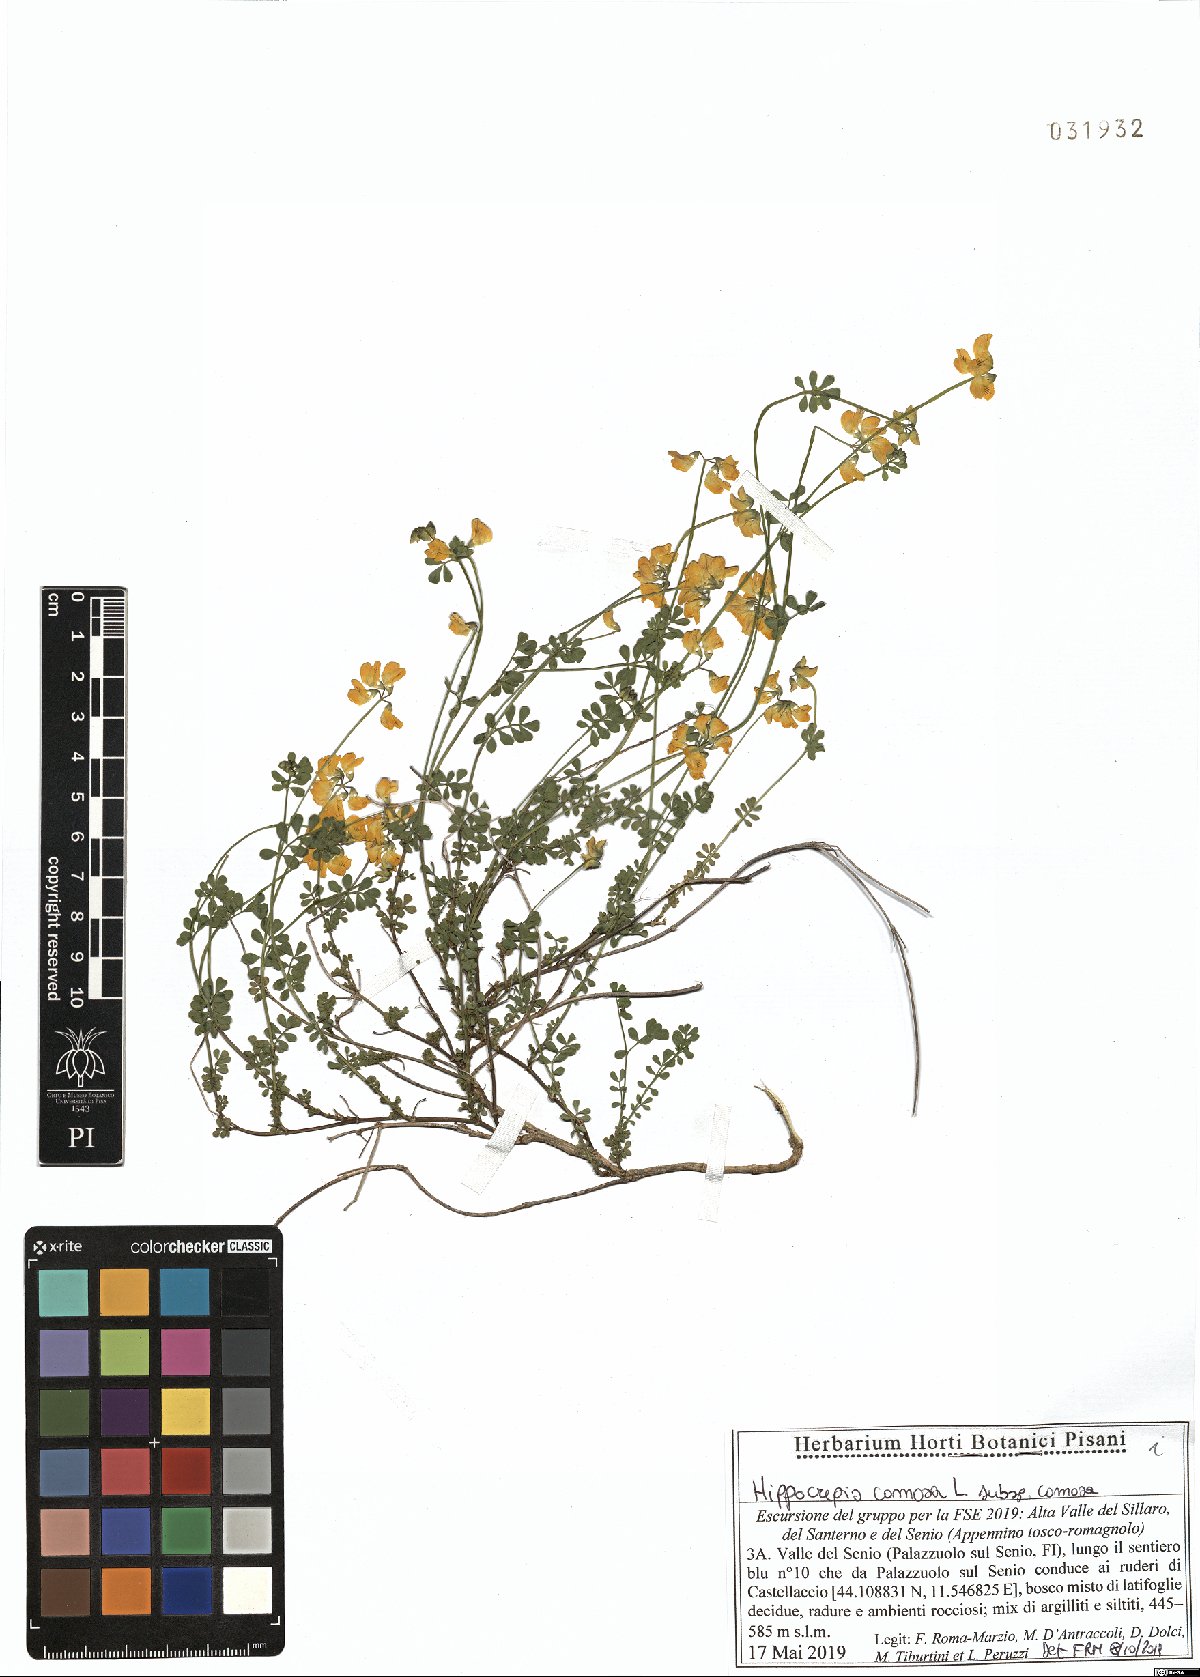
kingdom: Plantae
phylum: Tracheophyta
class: Magnoliopsida
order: Fabales
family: Fabaceae
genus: Hippocrepis
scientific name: Hippocrepis comosa
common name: Horseshoe vetch
